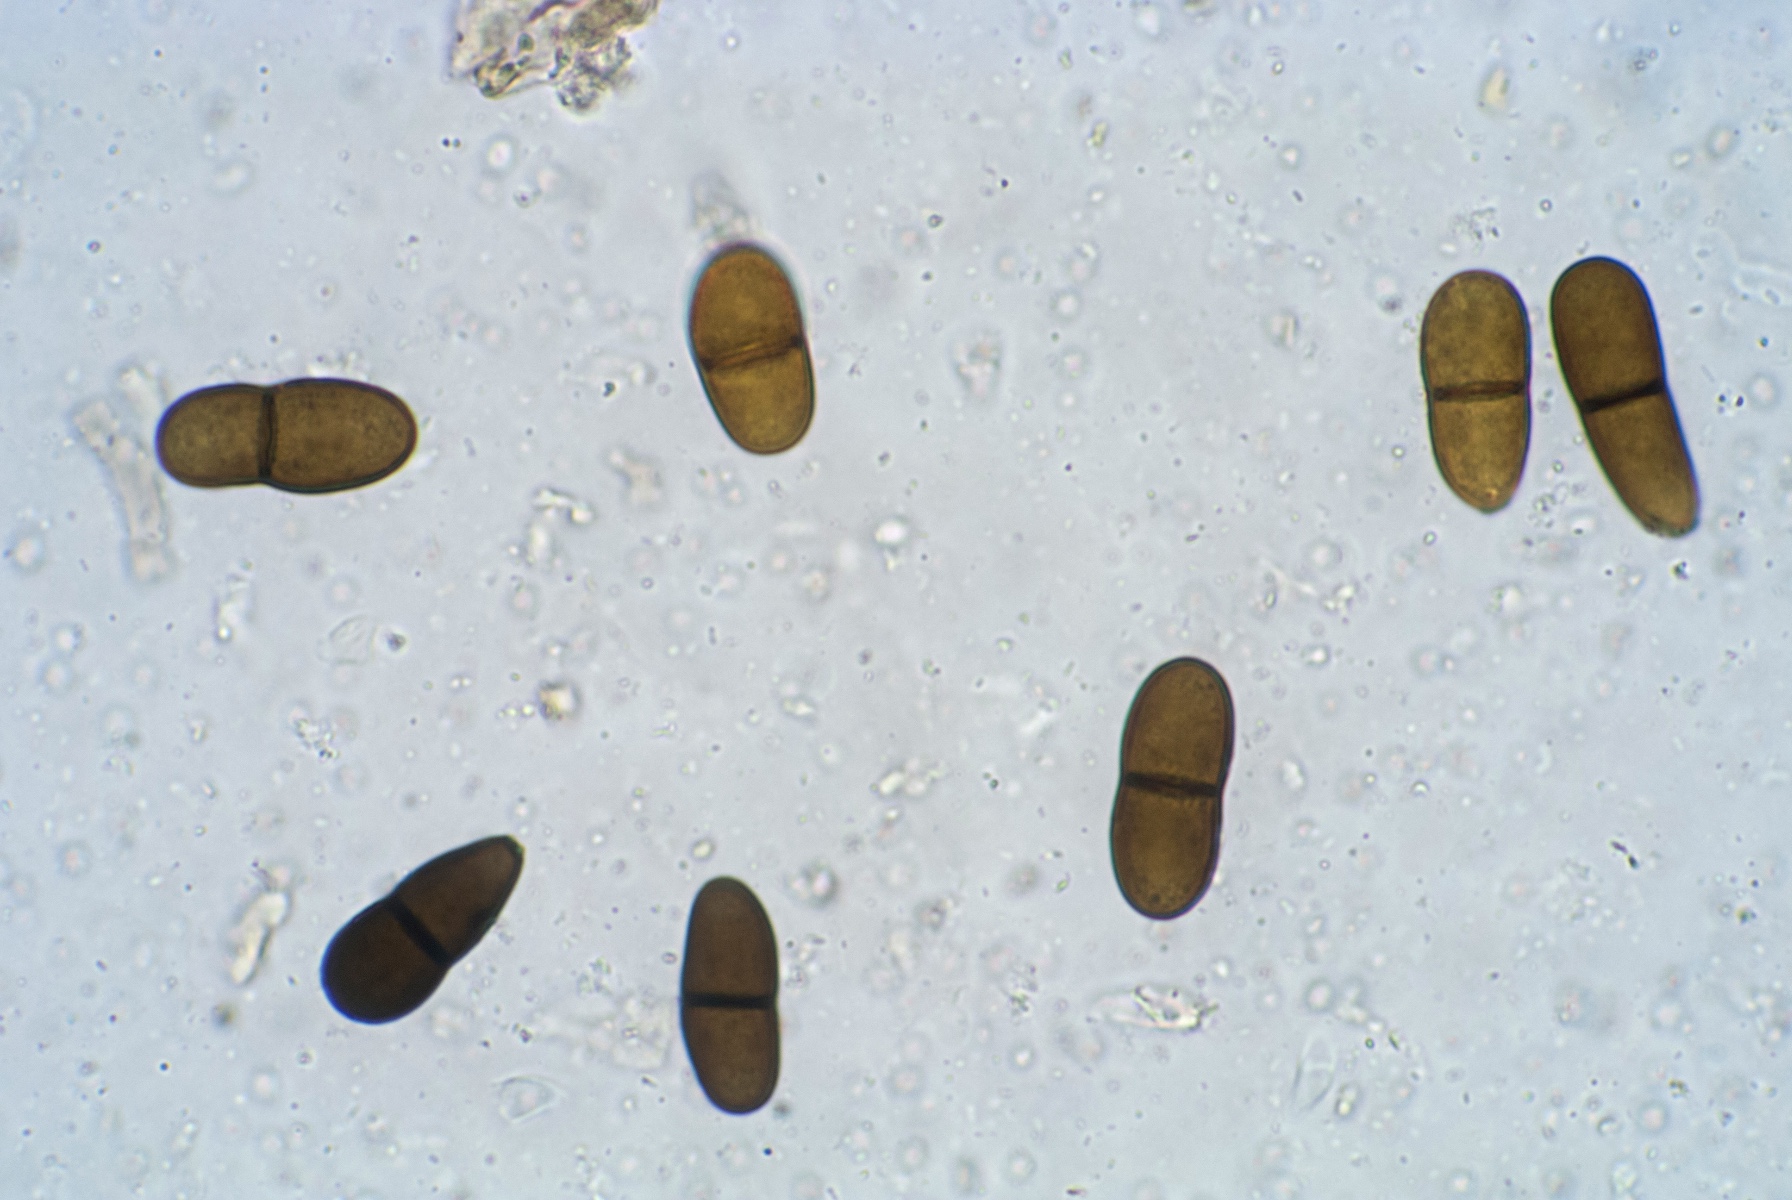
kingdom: Fungi
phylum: Ascomycota
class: Dothideomycetes
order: Botryosphaeriales
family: Botryosphaeriaceae
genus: Diplodia
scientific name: Diplodia
